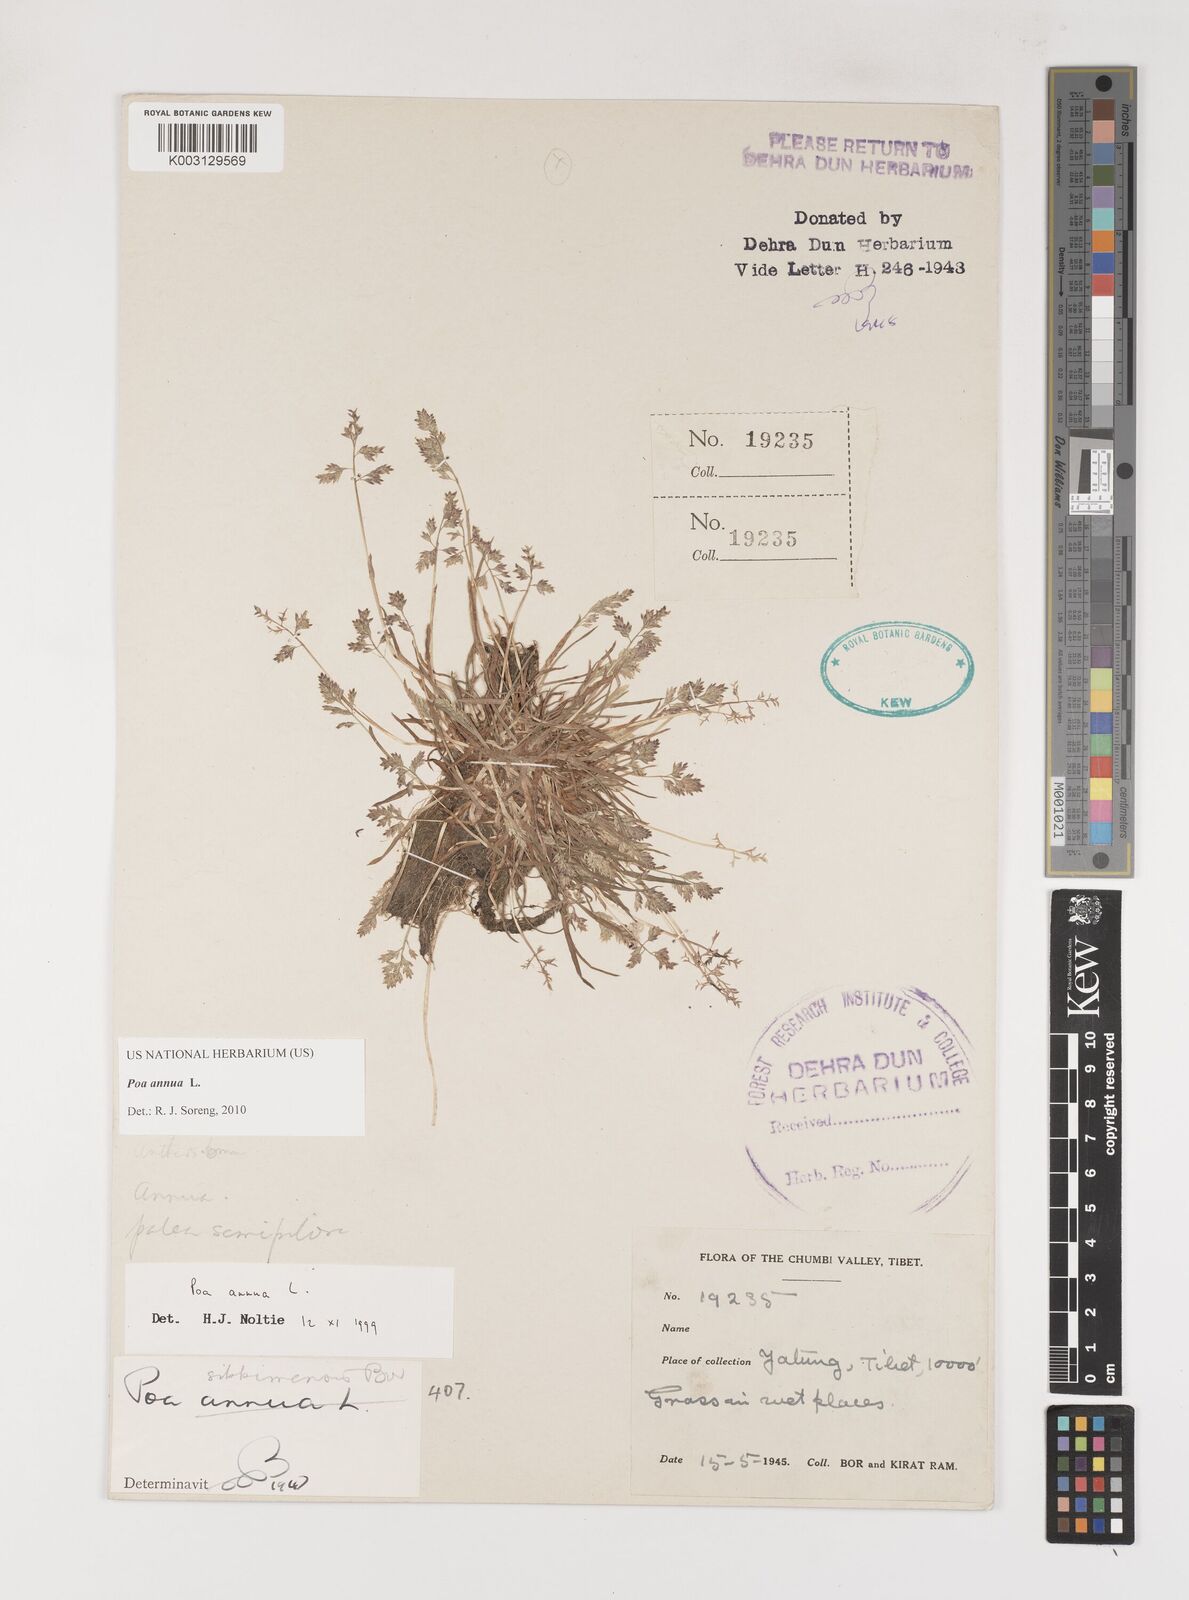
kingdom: Plantae
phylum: Tracheophyta
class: Liliopsida
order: Poales
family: Poaceae
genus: Poa
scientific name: Poa annua
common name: Annual bluegrass
